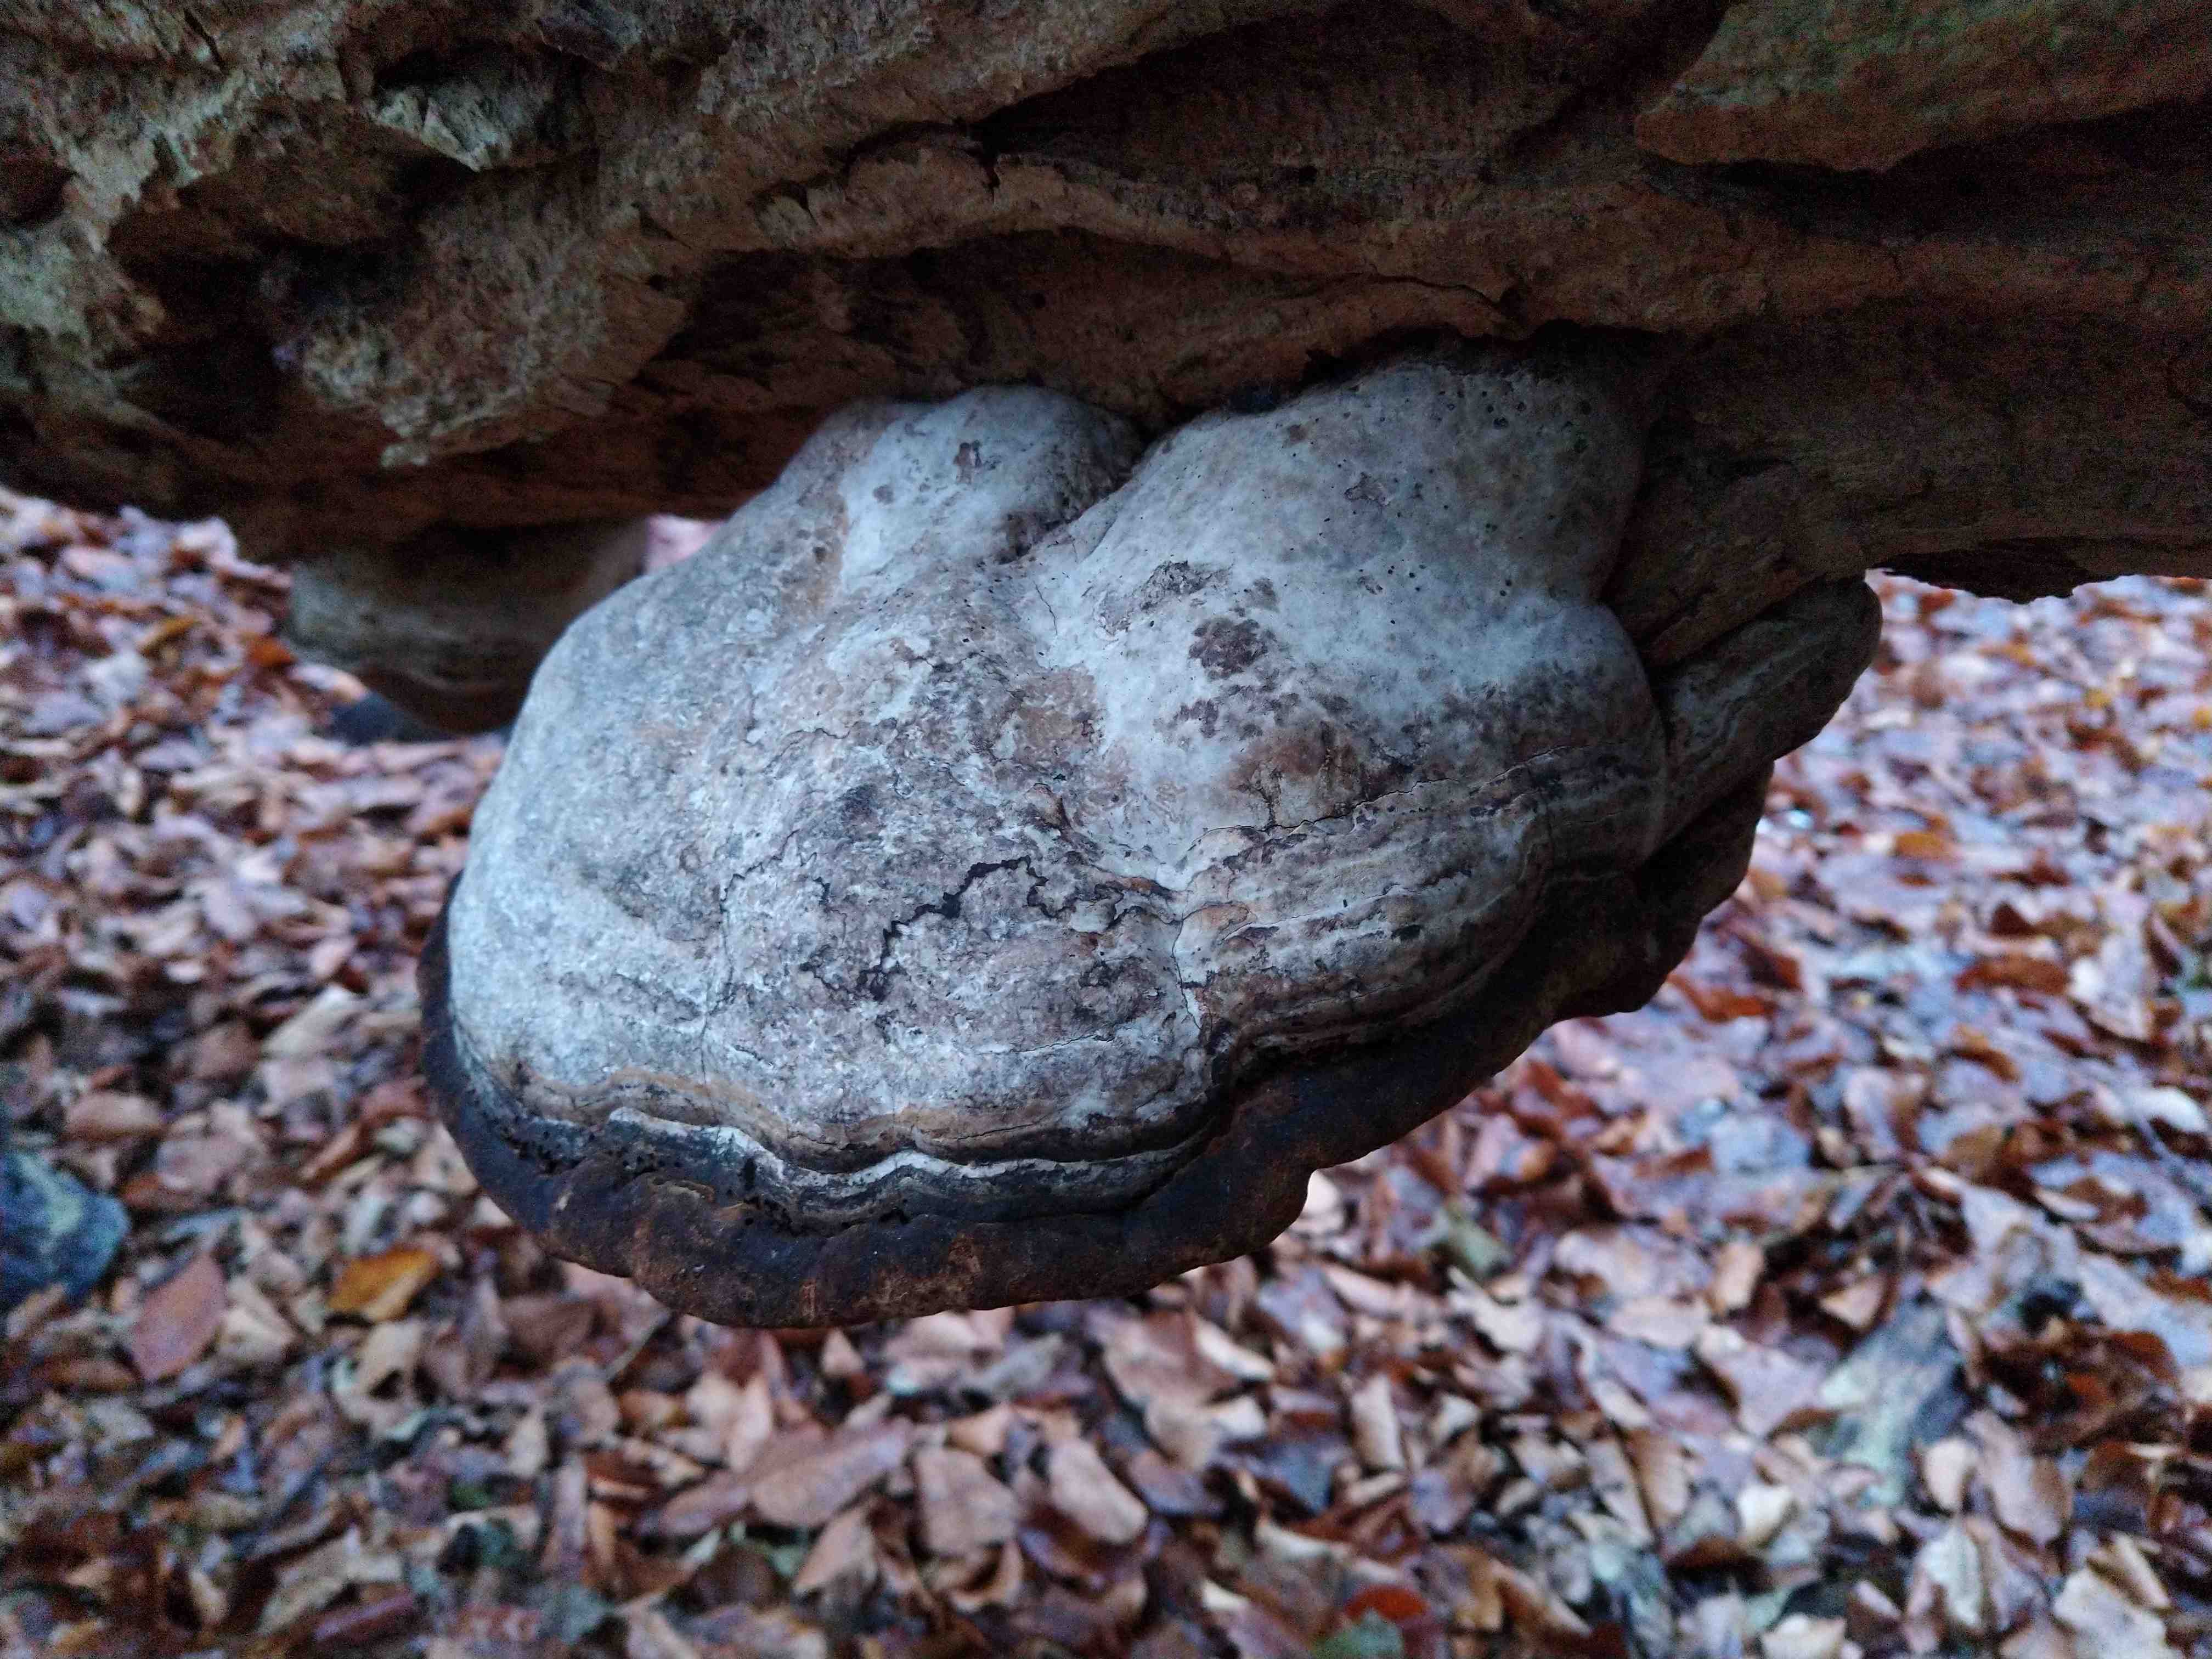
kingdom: Fungi
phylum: Basidiomycota
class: Agaricomycetes
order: Polyporales
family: Polyporaceae
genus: Fomes
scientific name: Fomes fomentarius
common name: tøndersvamp
